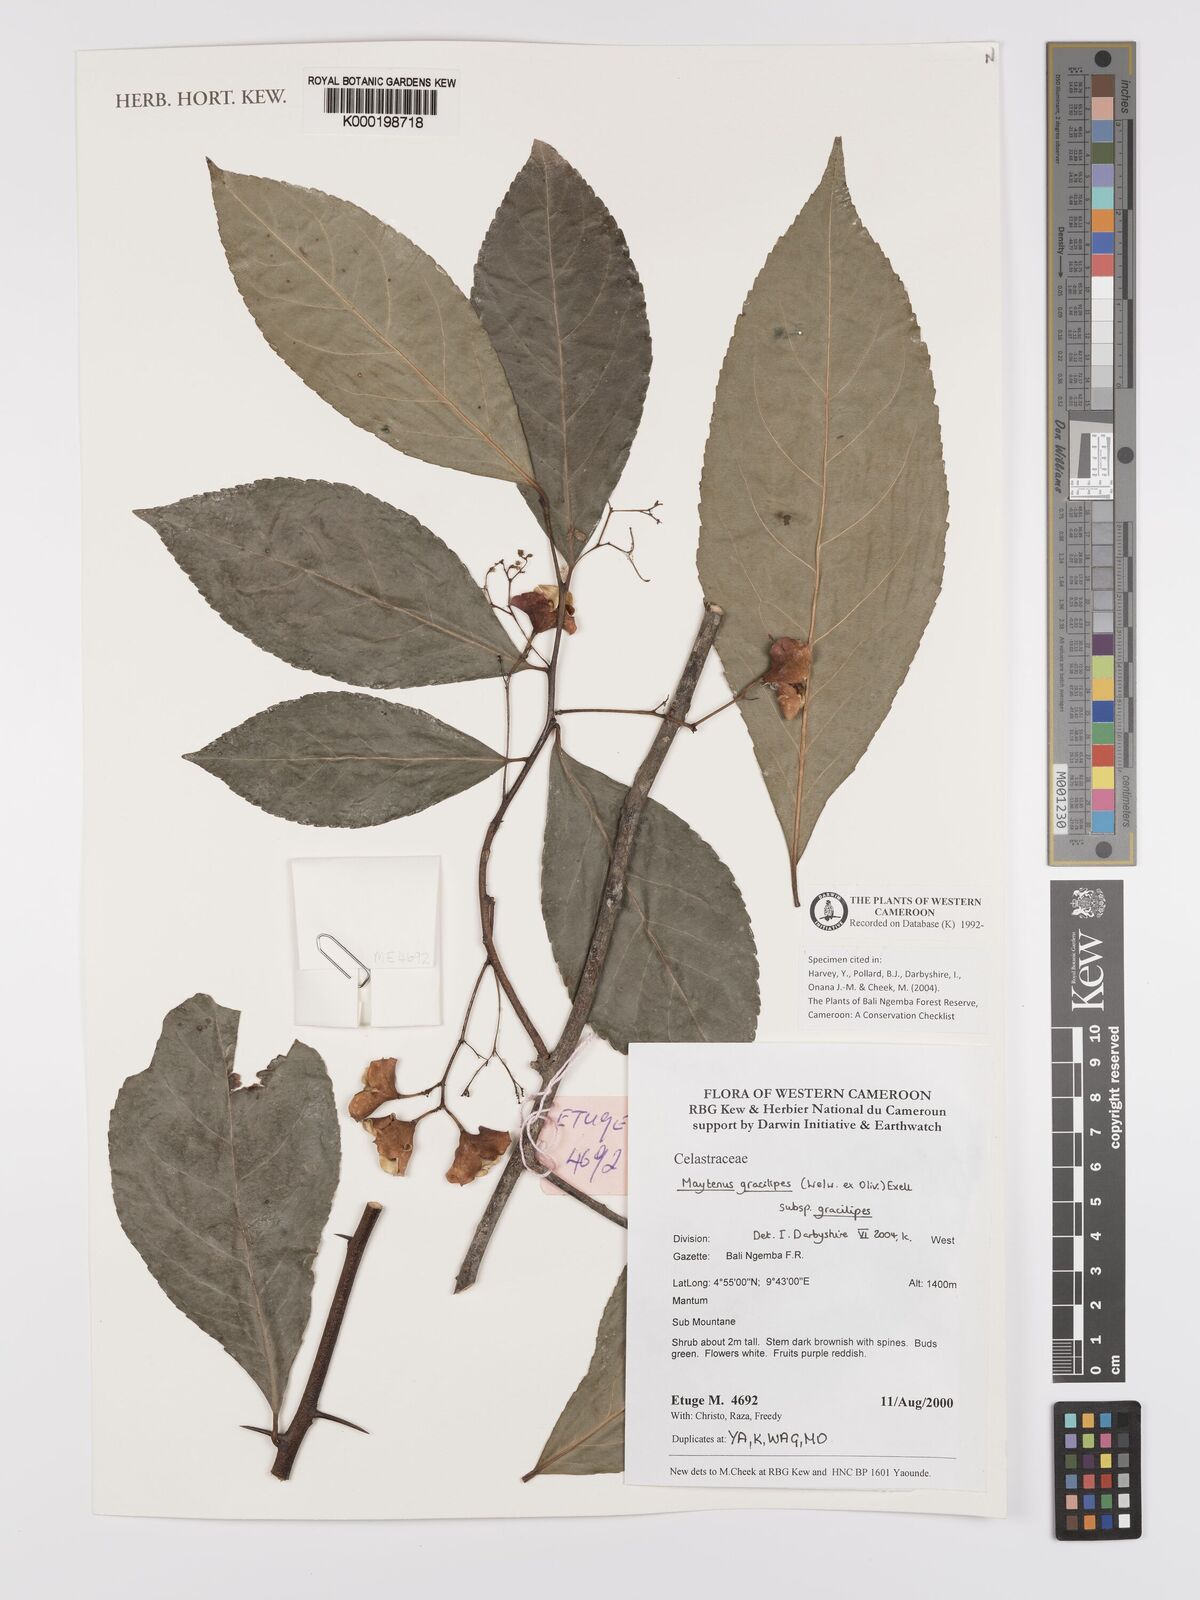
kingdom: Plantae
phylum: Tracheophyta
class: Magnoliopsida
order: Celastrales
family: Celastraceae
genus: Gymnosporia
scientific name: Gymnosporia gracilipes
